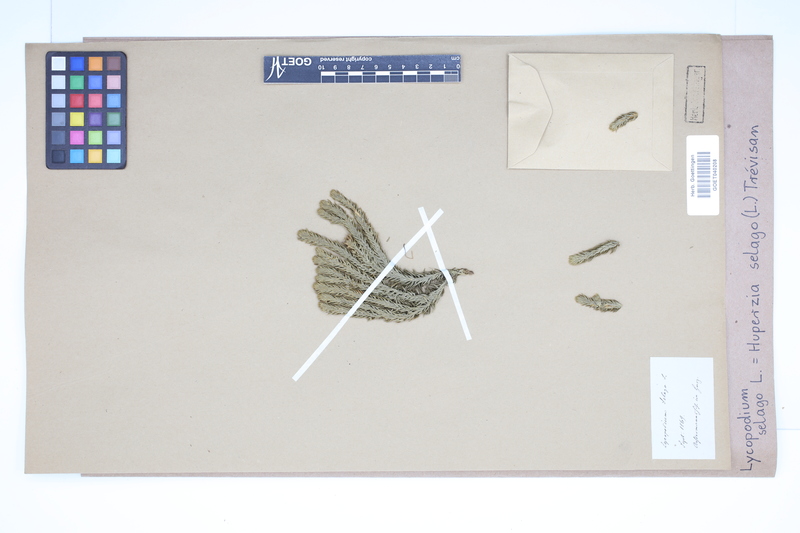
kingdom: Plantae
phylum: Tracheophyta
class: Lycopodiopsida
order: Lycopodiales
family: Lycopodiaceae
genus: Huperzia
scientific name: Huperzia selago
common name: Northern firmoss
